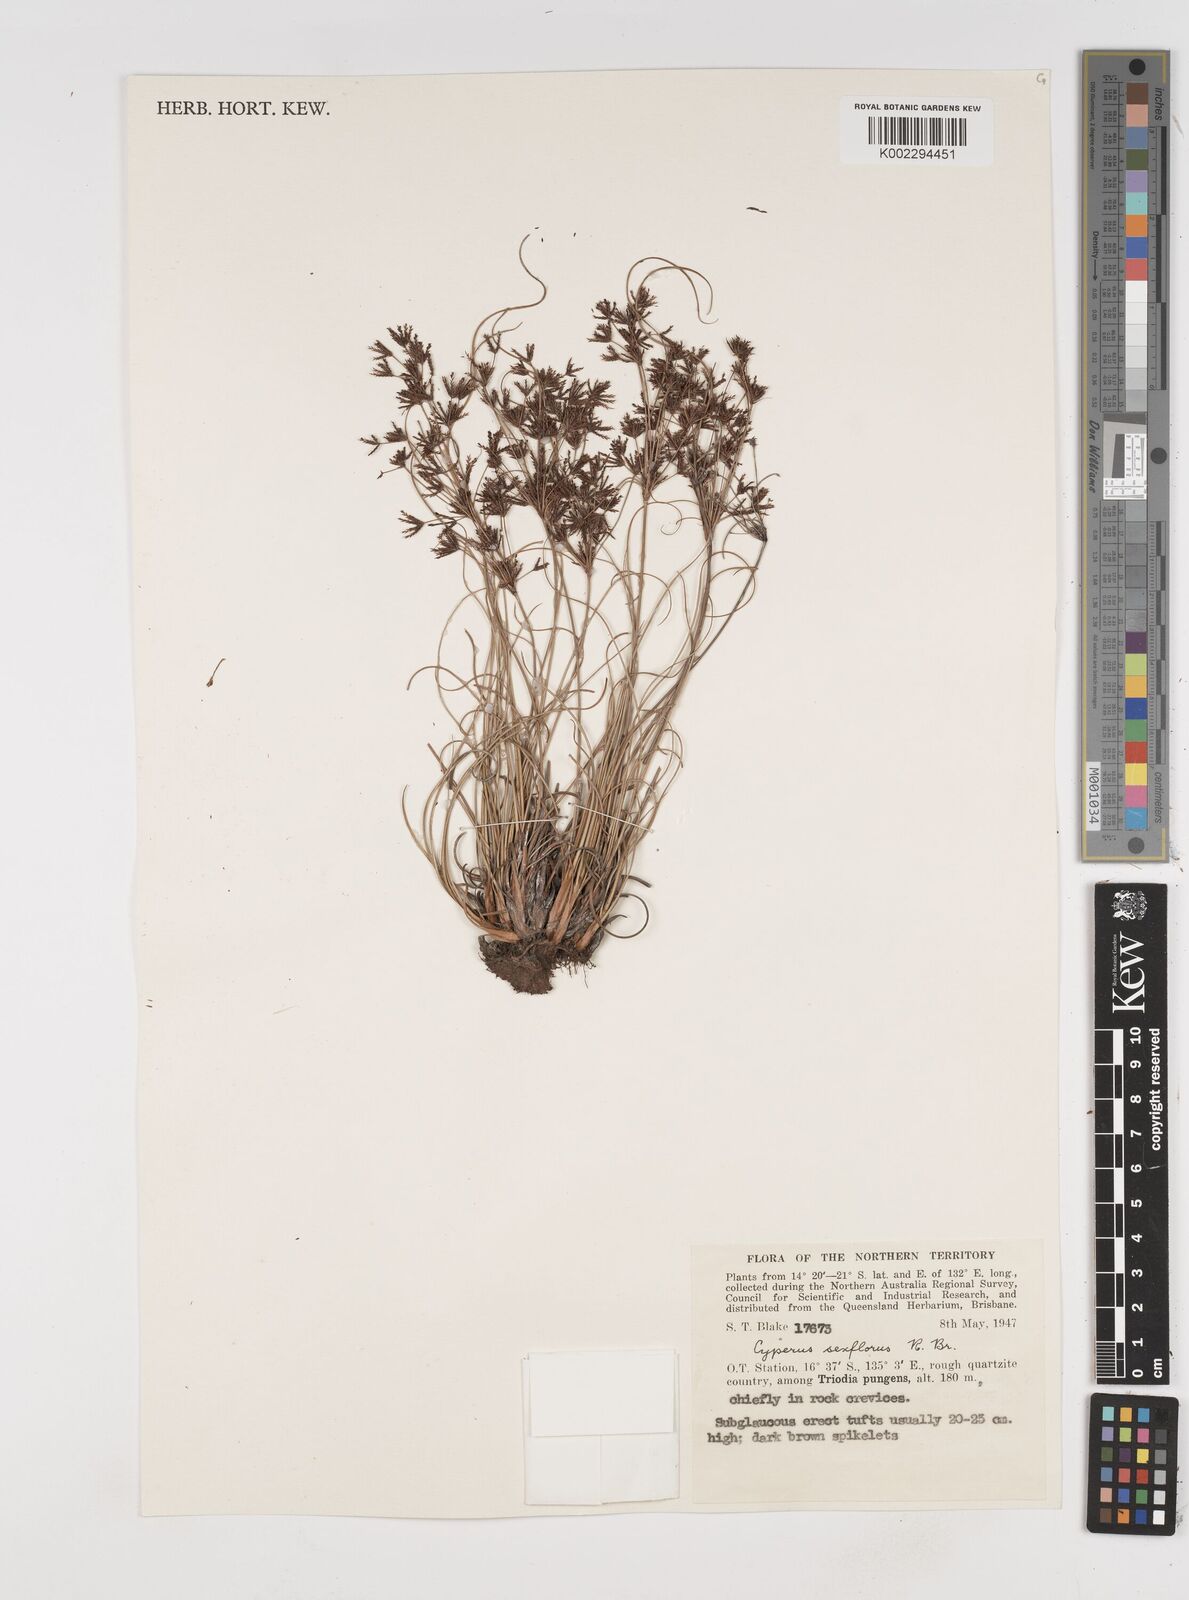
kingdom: Plantae
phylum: Tracheophyta
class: Liliopsida
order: Poales
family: Cyperaceae
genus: Cyperus
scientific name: Cyperus sexflorus
